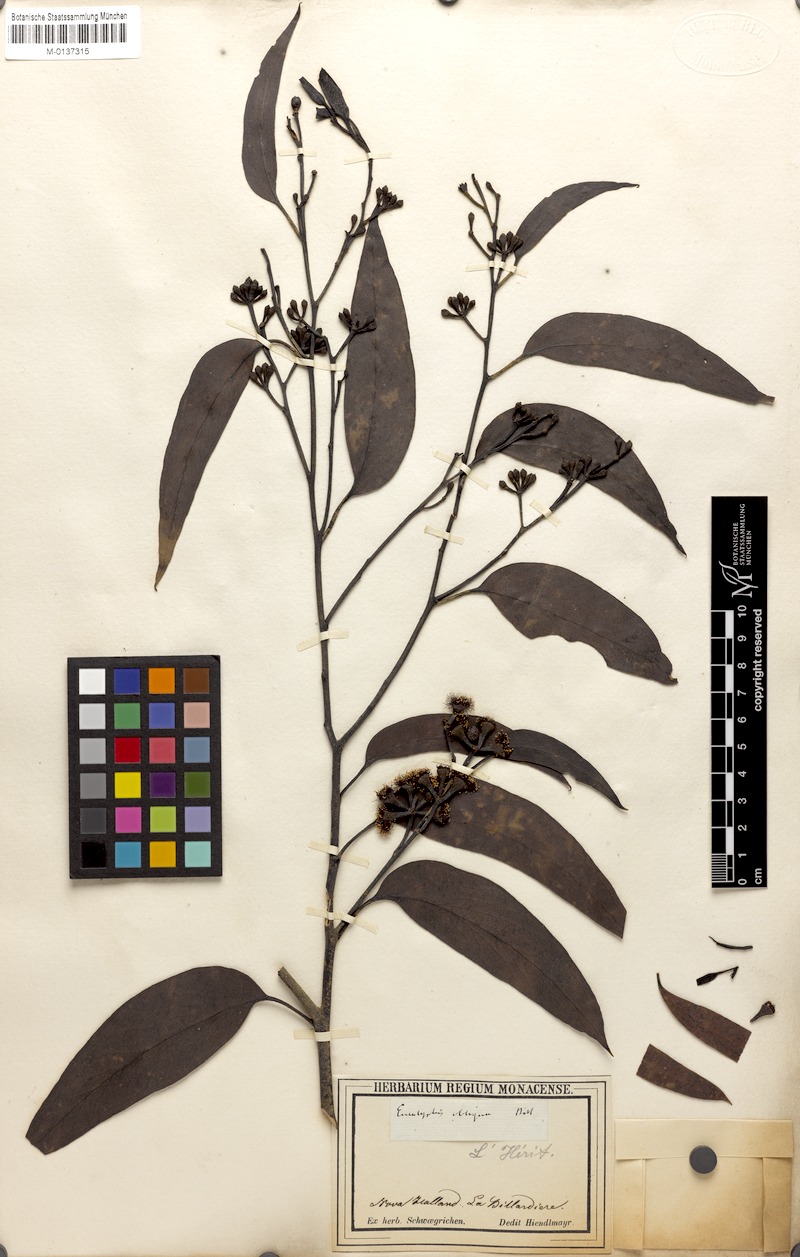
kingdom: Plantae
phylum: Tracheophyta
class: Magnoliopsida
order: Myrtales
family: Myrtaceae
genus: Eucalyptus
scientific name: Eucalyptus obliqua
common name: Messmate stringybark
